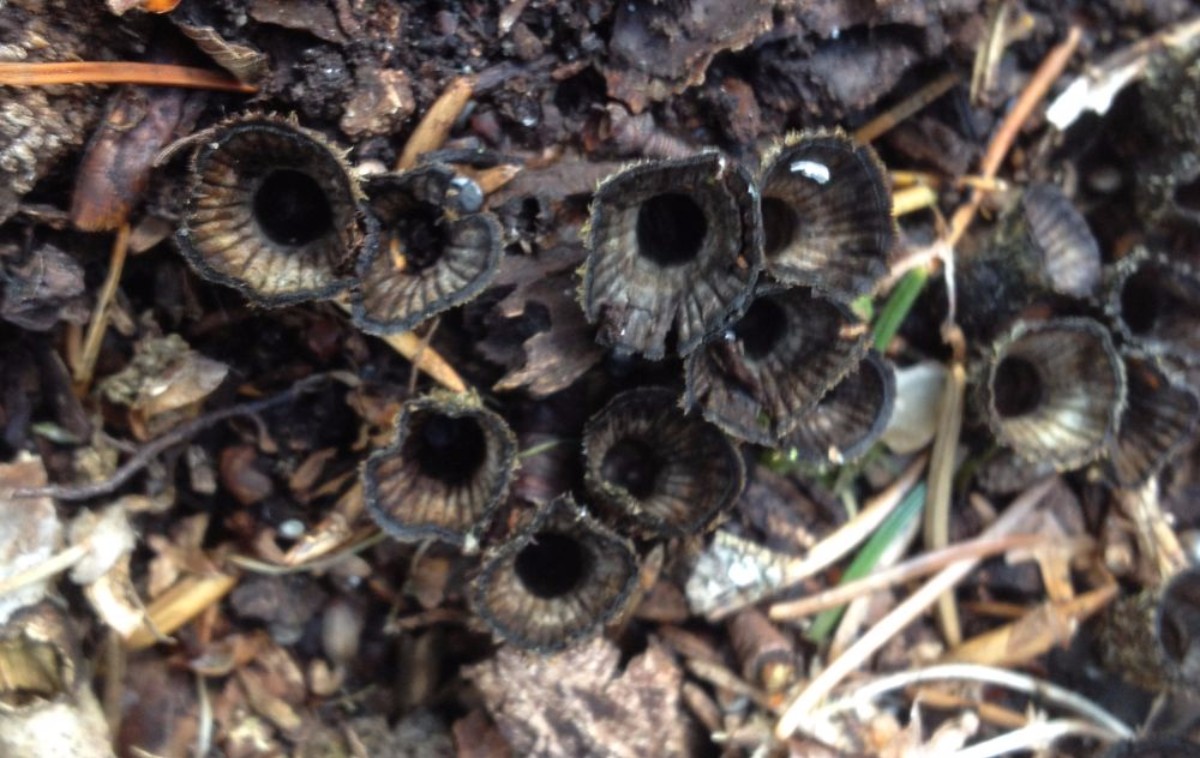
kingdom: Fungi
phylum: Basidiomycota
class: Agaricomycetes
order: Agaricales
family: Agaricaceae
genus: Cyathus
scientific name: Cyathus striatus
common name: stribet redesvamp
